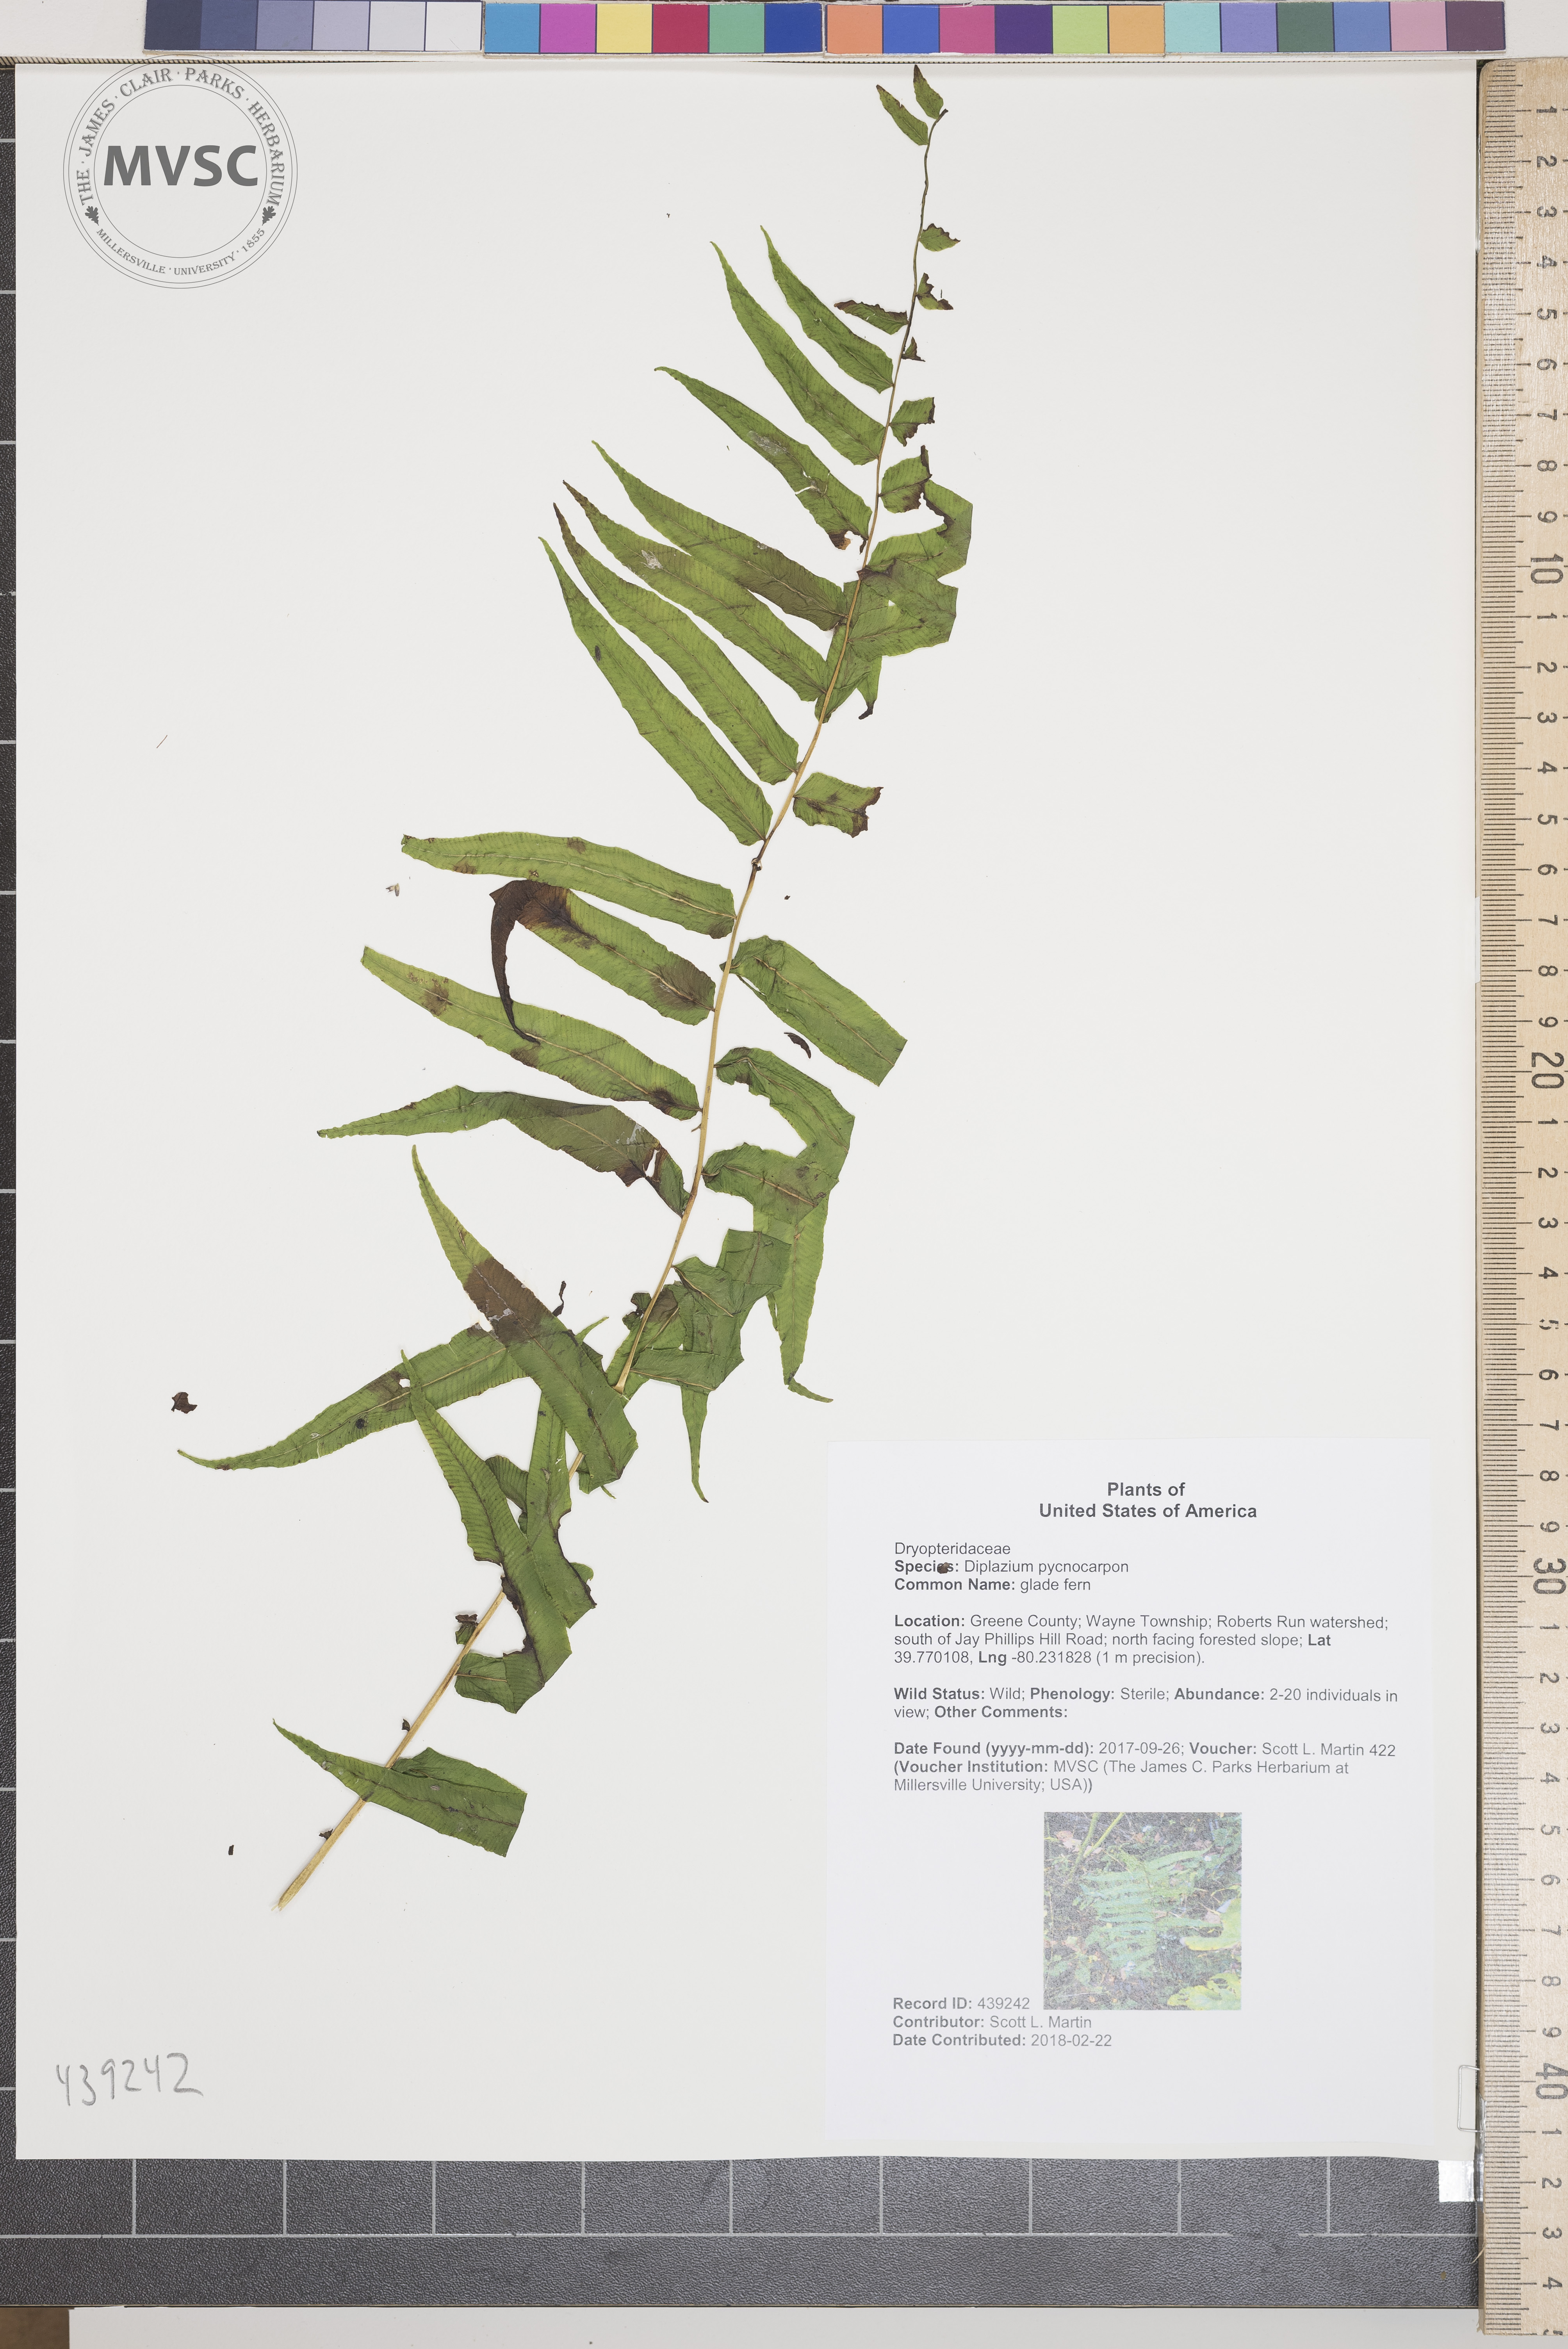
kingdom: Plantae
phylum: Tracheophyta
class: Polypodiopsida
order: Polypodiales
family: Diplaziopsidaceae
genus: Homalosorus
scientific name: Homalosorus pycnocarpos
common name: glade fern
